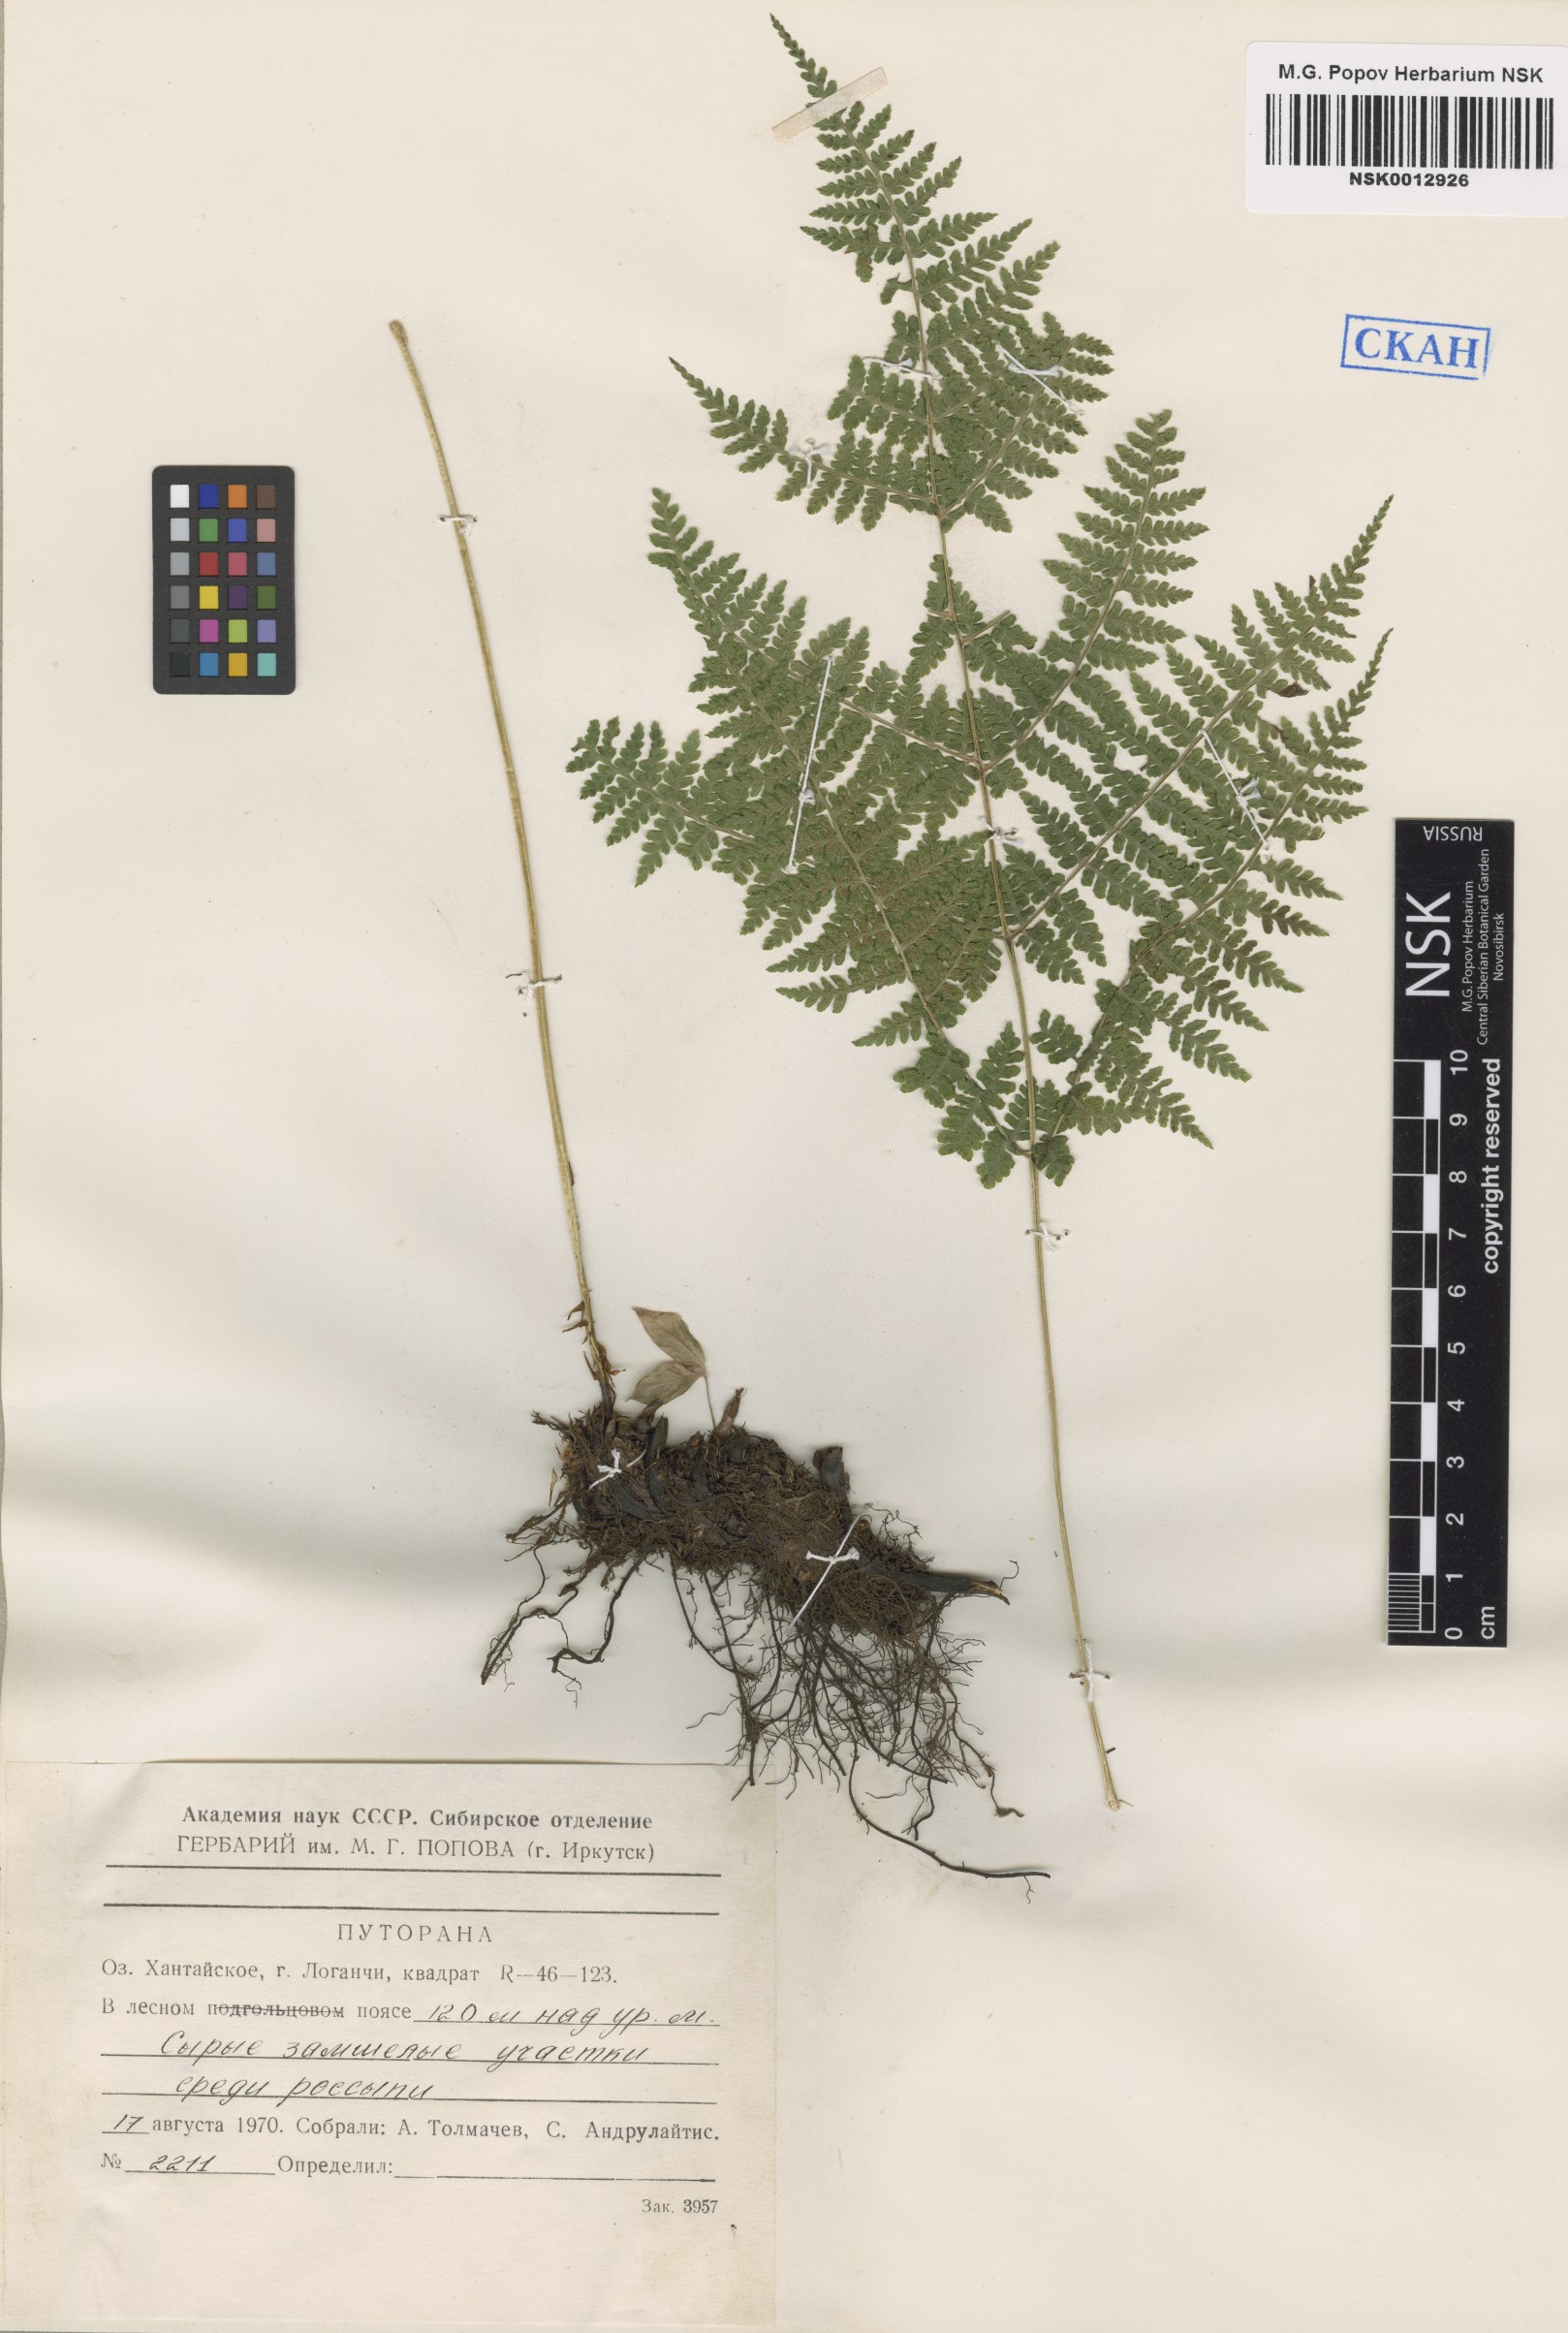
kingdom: Plantae
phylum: Tracheophyta
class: Polypodiopsida
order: Polypodiales
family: Athyriaceae
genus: Diplazium
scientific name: Diplazium sibiricum
